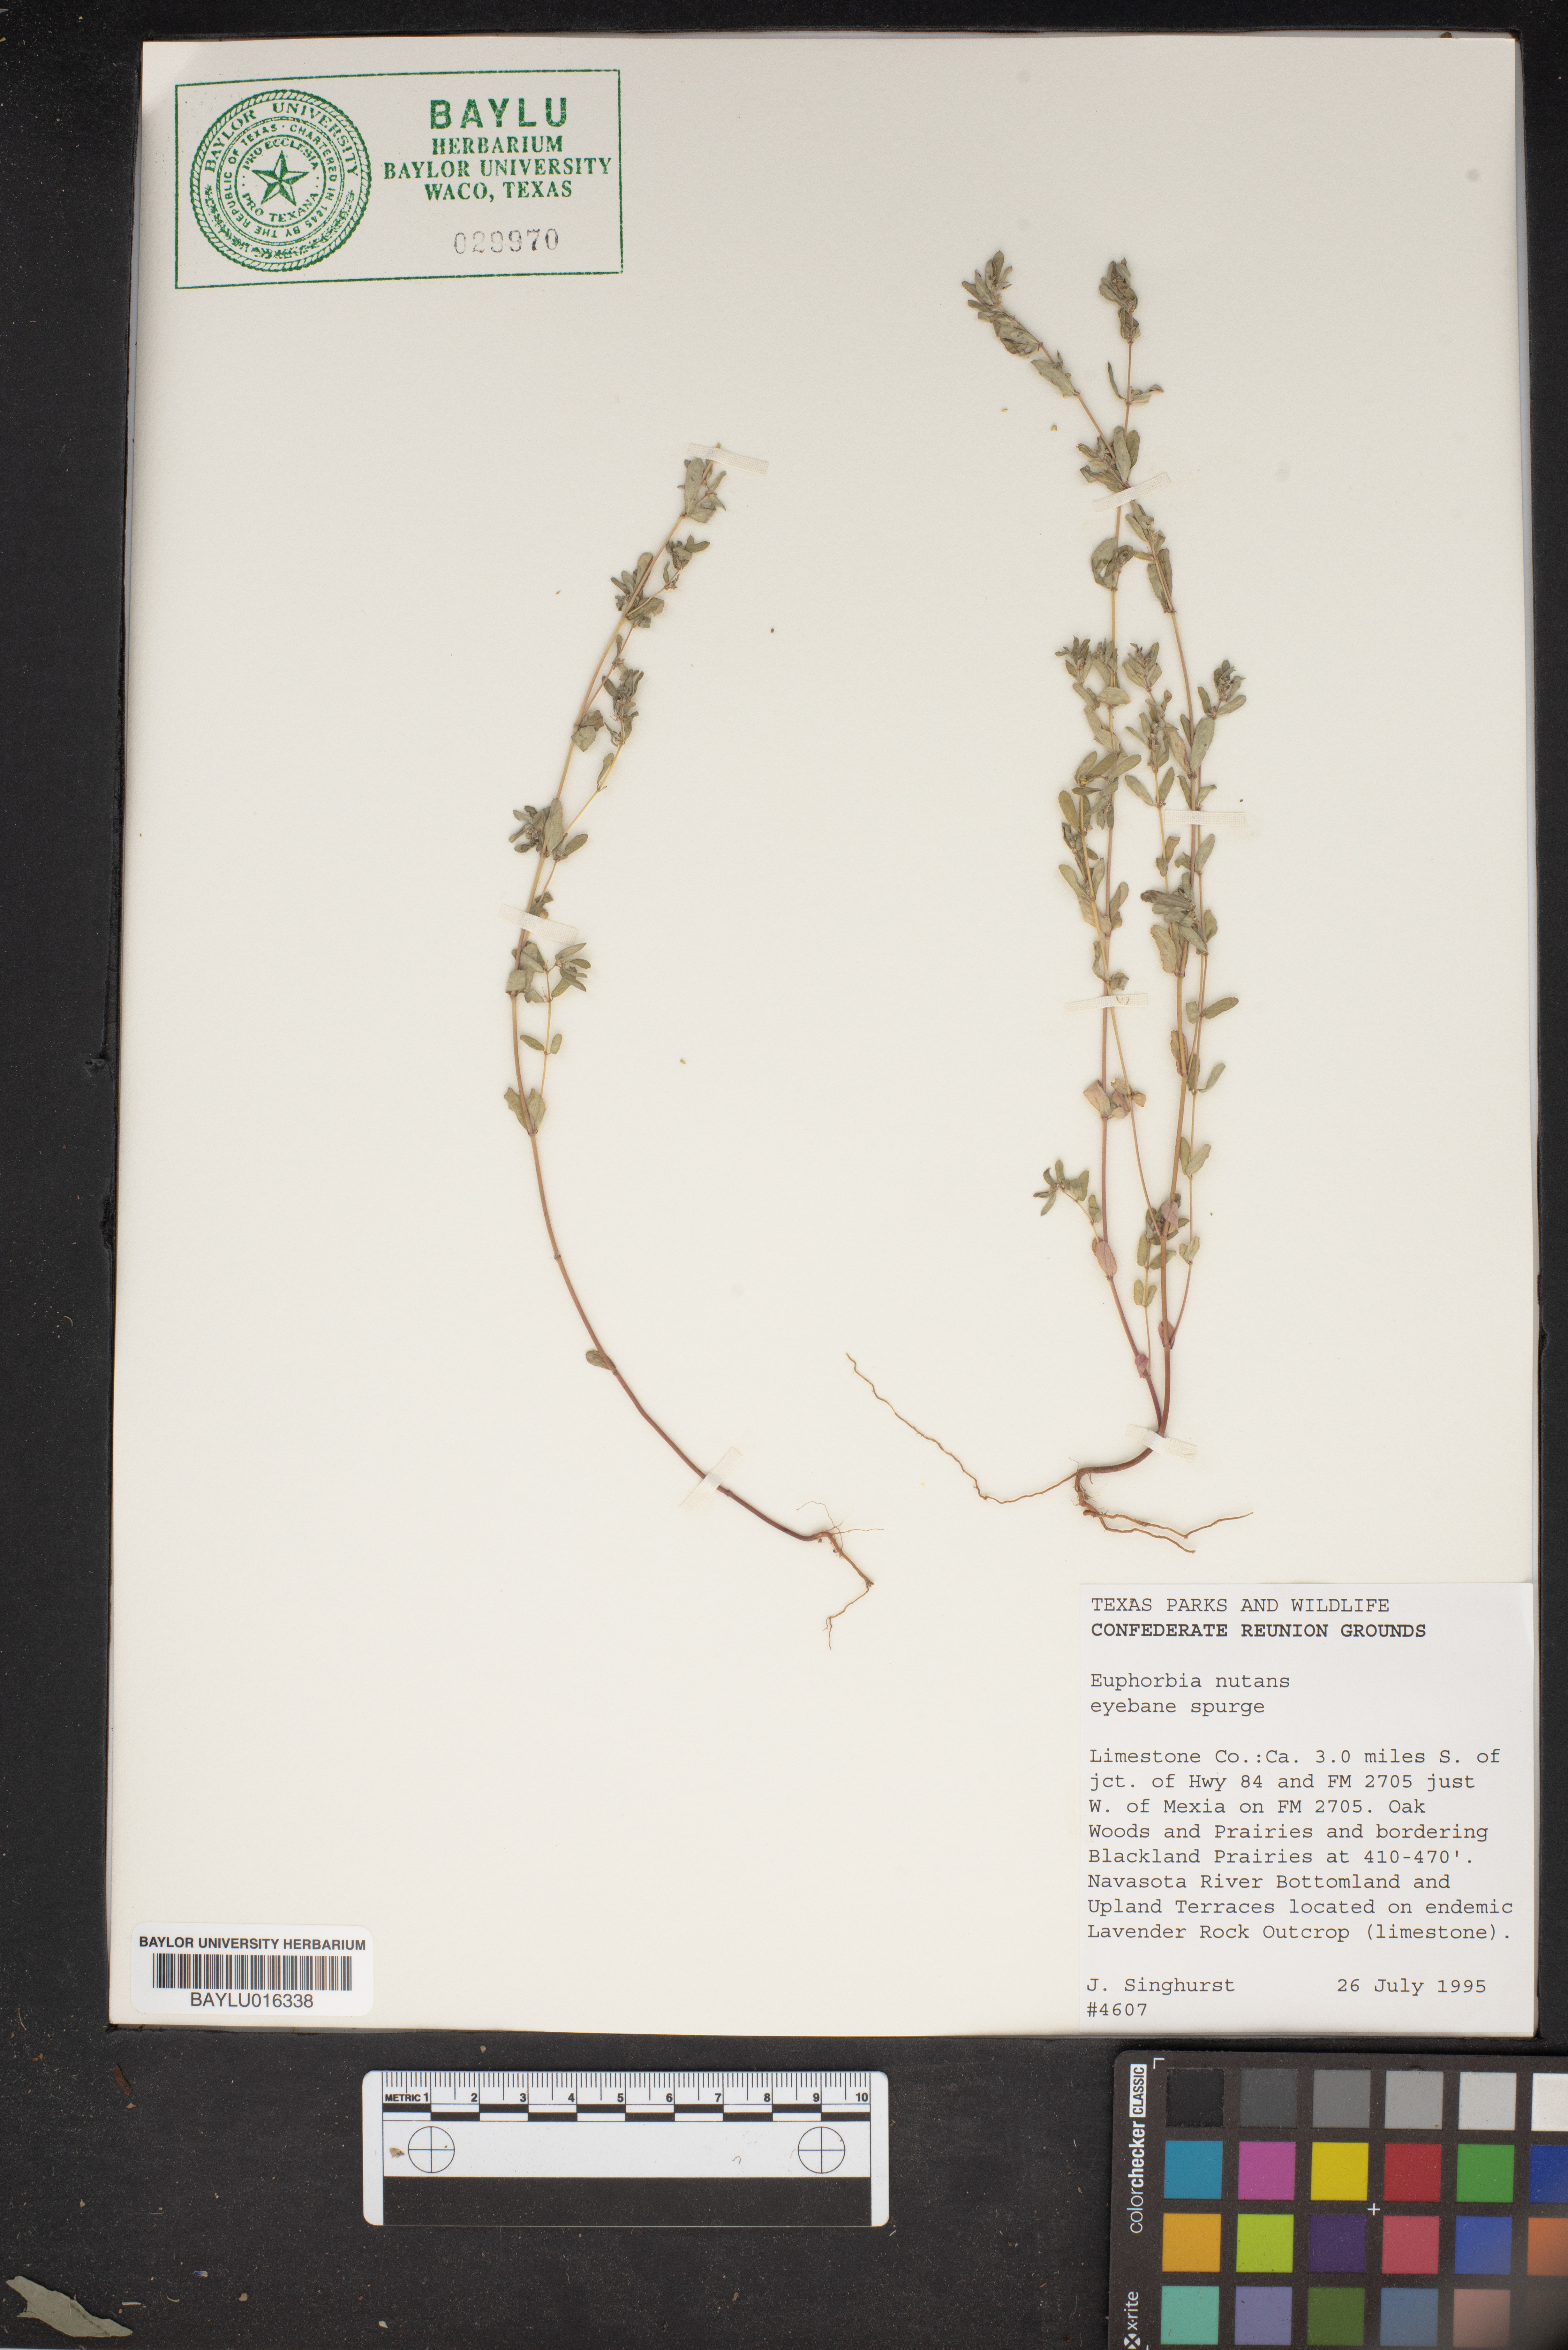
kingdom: Plantae
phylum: Tracheophyta
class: Magnoliopsida
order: Malpighiales
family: Euphorbiaceae
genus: Euphorbia
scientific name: Euphorbia nutans
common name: Eyebane
